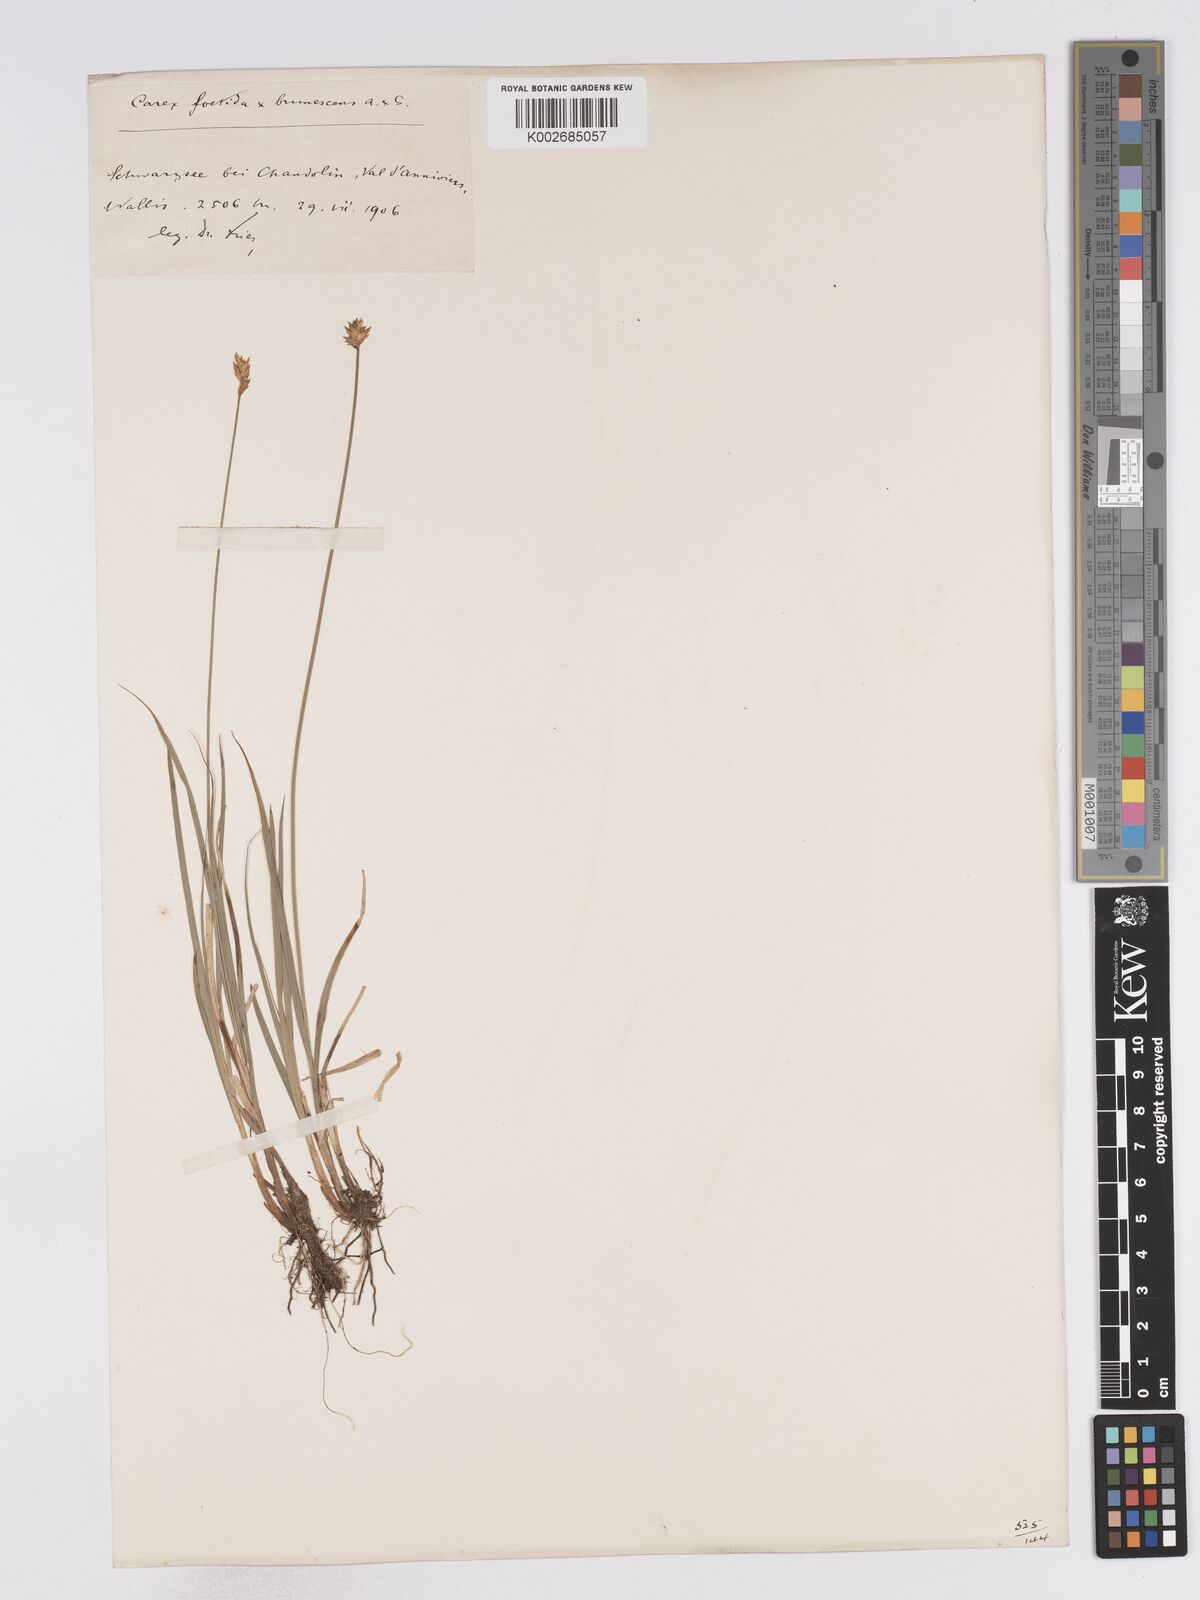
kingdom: Plantae
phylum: Tracheophyta
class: Liliopsida
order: Poales
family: Cyperaceae
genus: Carex
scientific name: Carex microstyla
